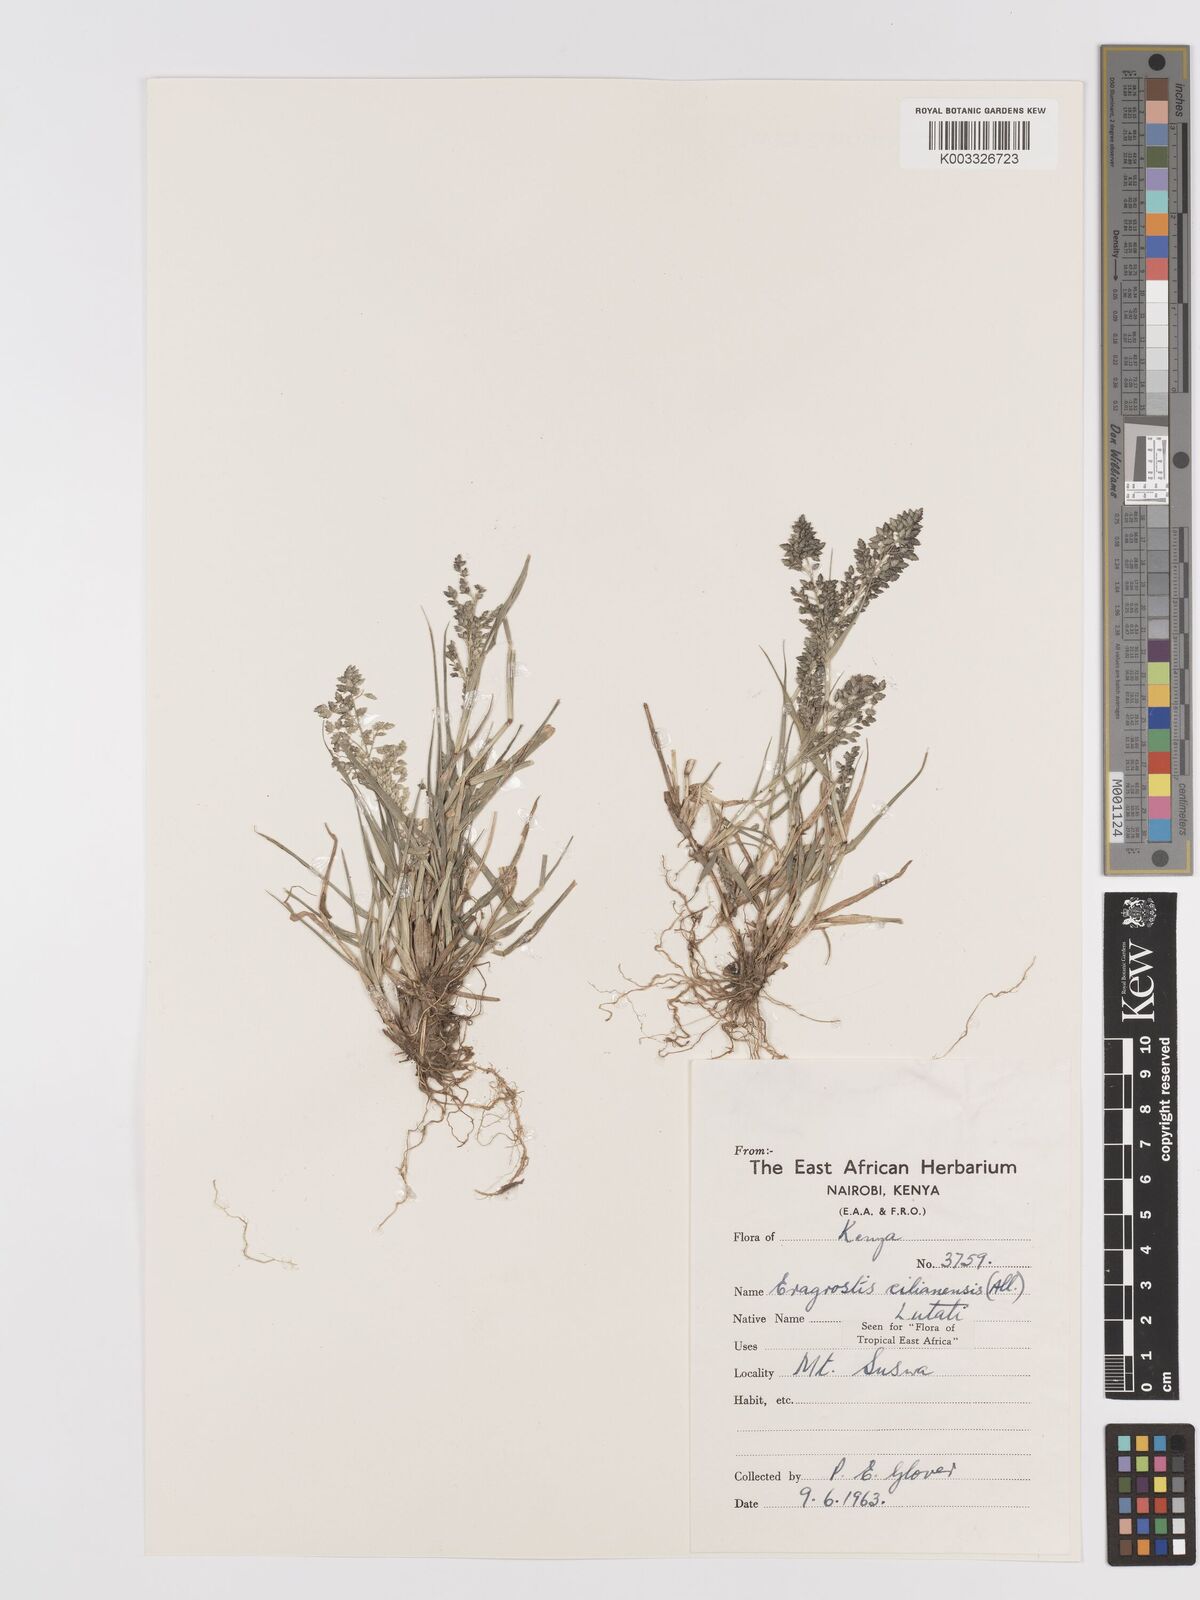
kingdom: Plantae
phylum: Tracheophyta
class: Liliopsida
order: Poales
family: Poaceae
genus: Eragrostis
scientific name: Eragrostis cilianensis
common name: Stinkgrass
